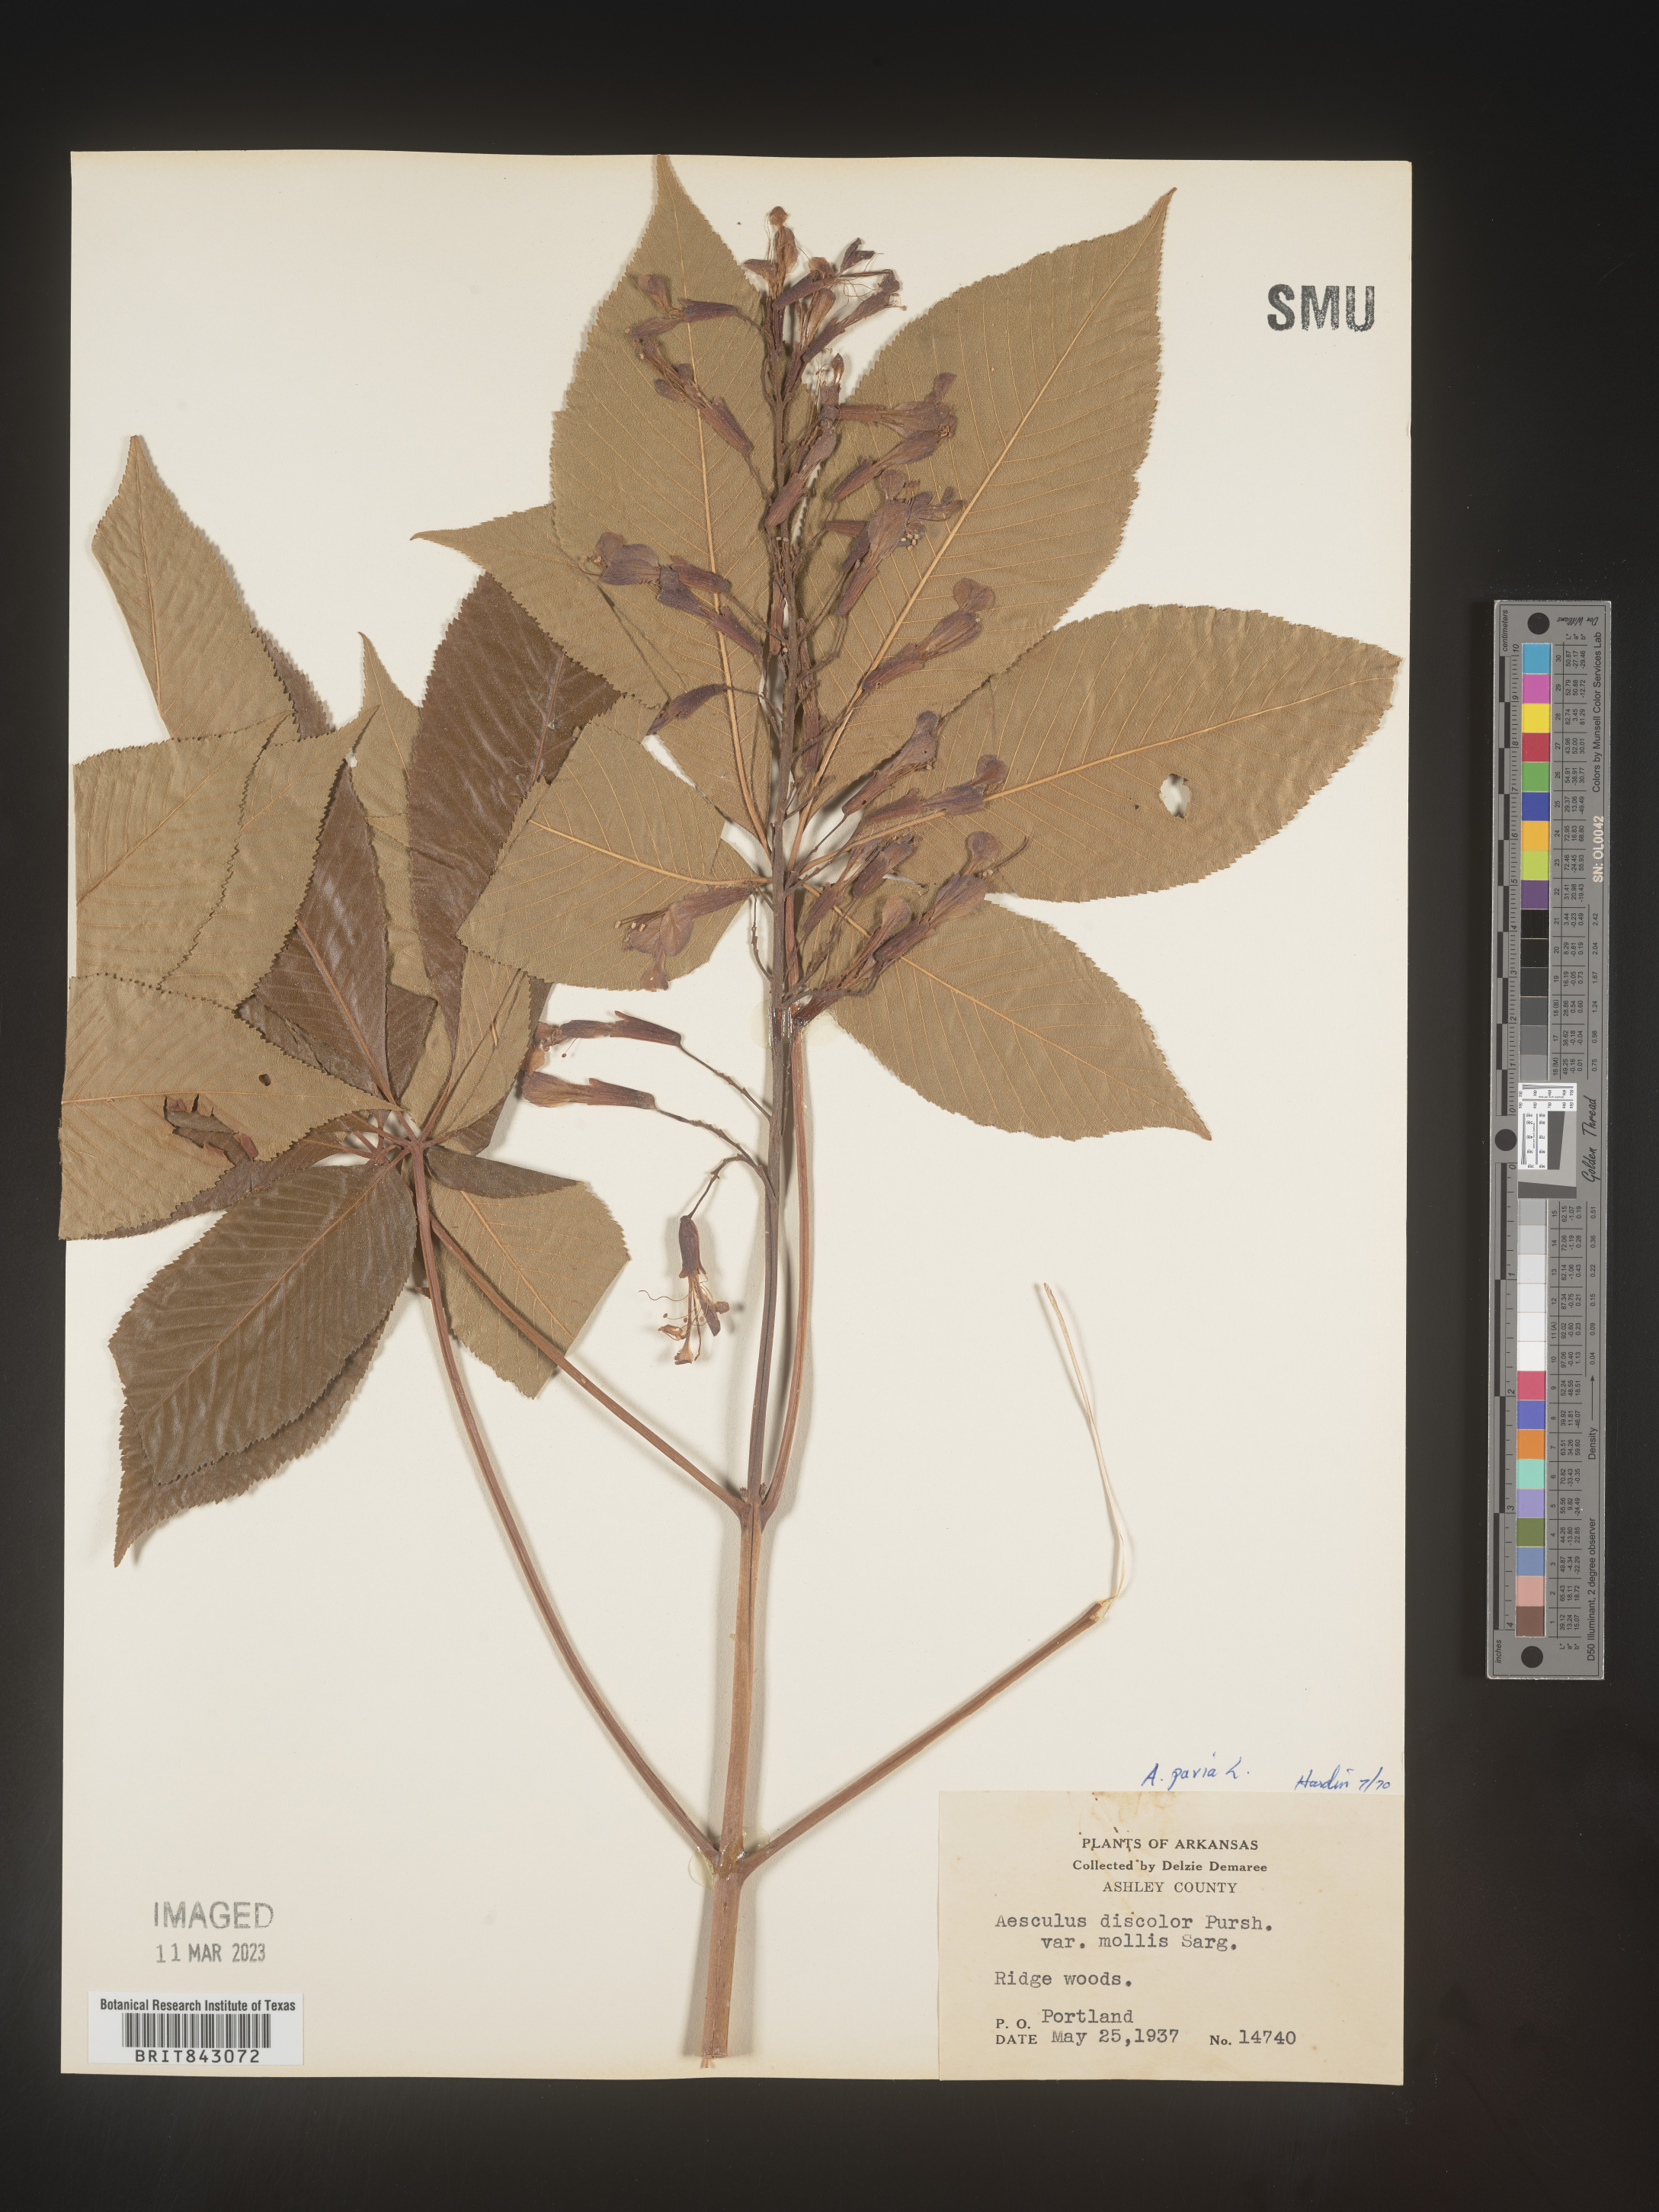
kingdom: Plantae
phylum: Tracheophyta
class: Magnoliopsida
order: Sapindales
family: Sapindaceae
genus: Aesculus
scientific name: Aesculus pavia
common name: Red buckeye
